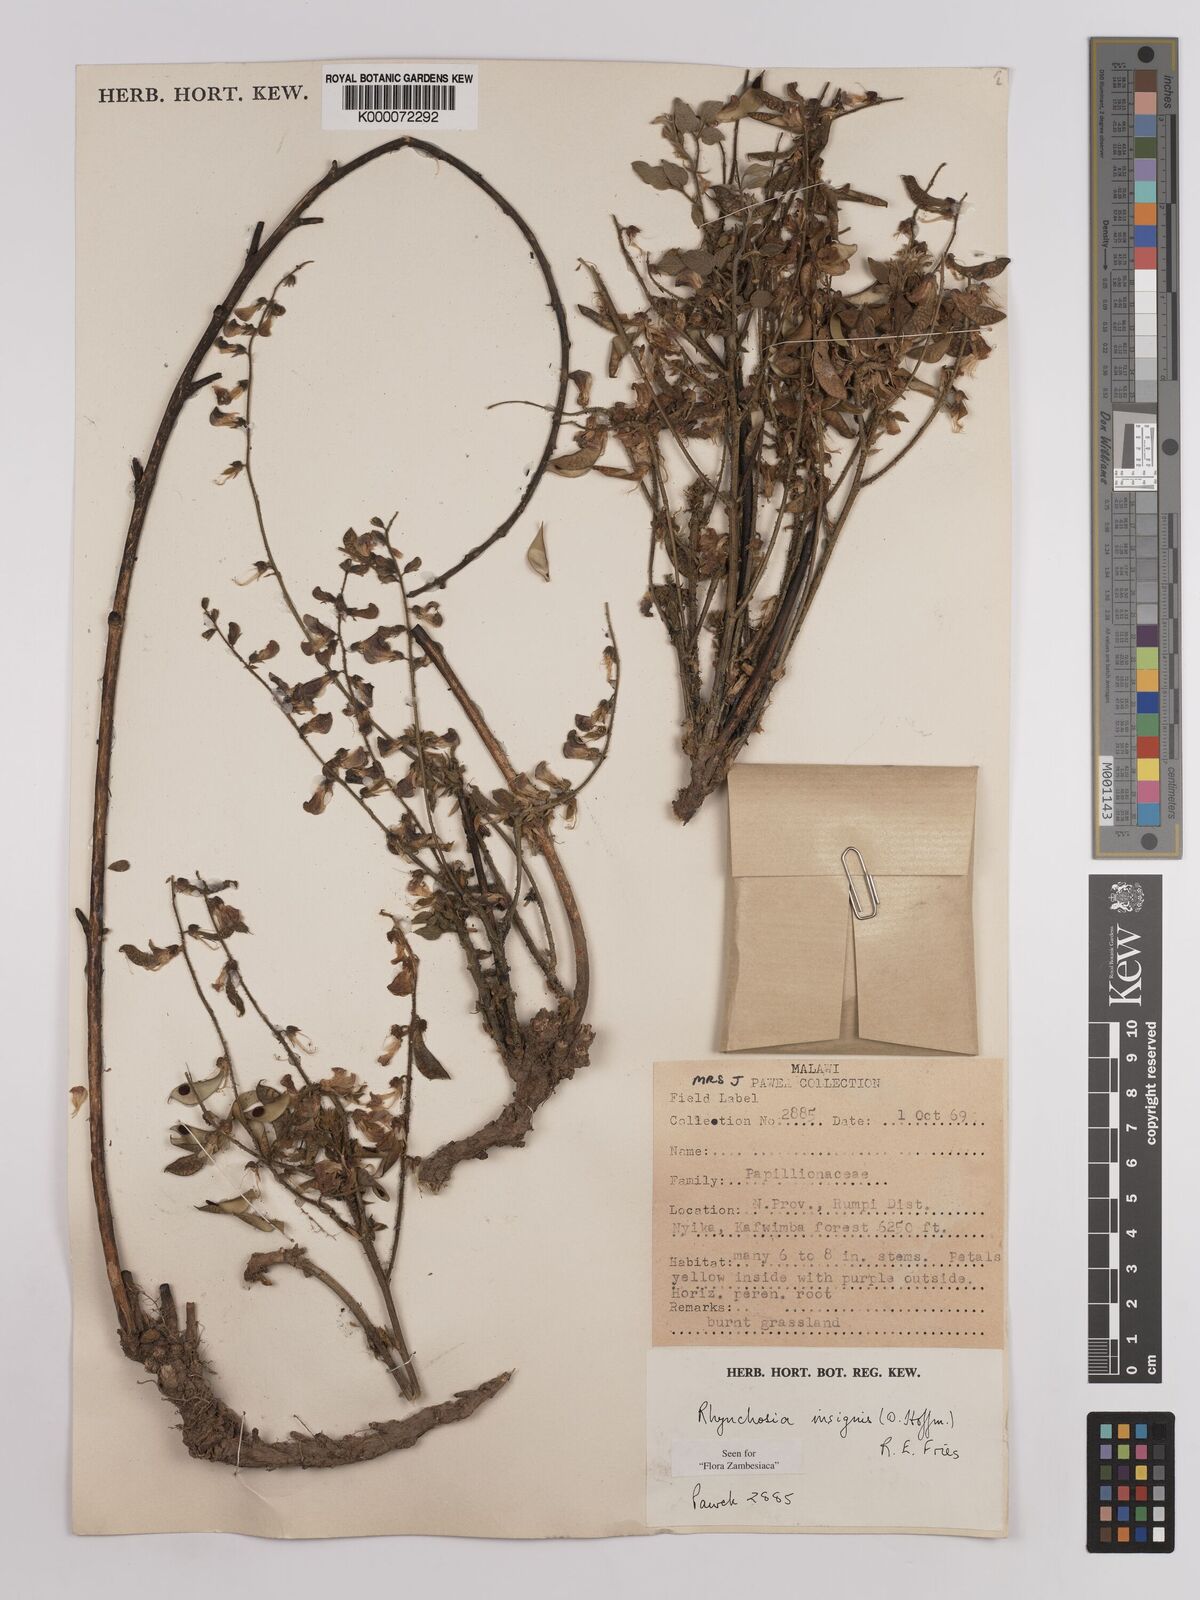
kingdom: Plantae
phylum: Tracheophyta
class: Magnoliopsida
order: Fabales
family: Fabaceae
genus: Rhynchosia
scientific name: Rhynchosia insignis
